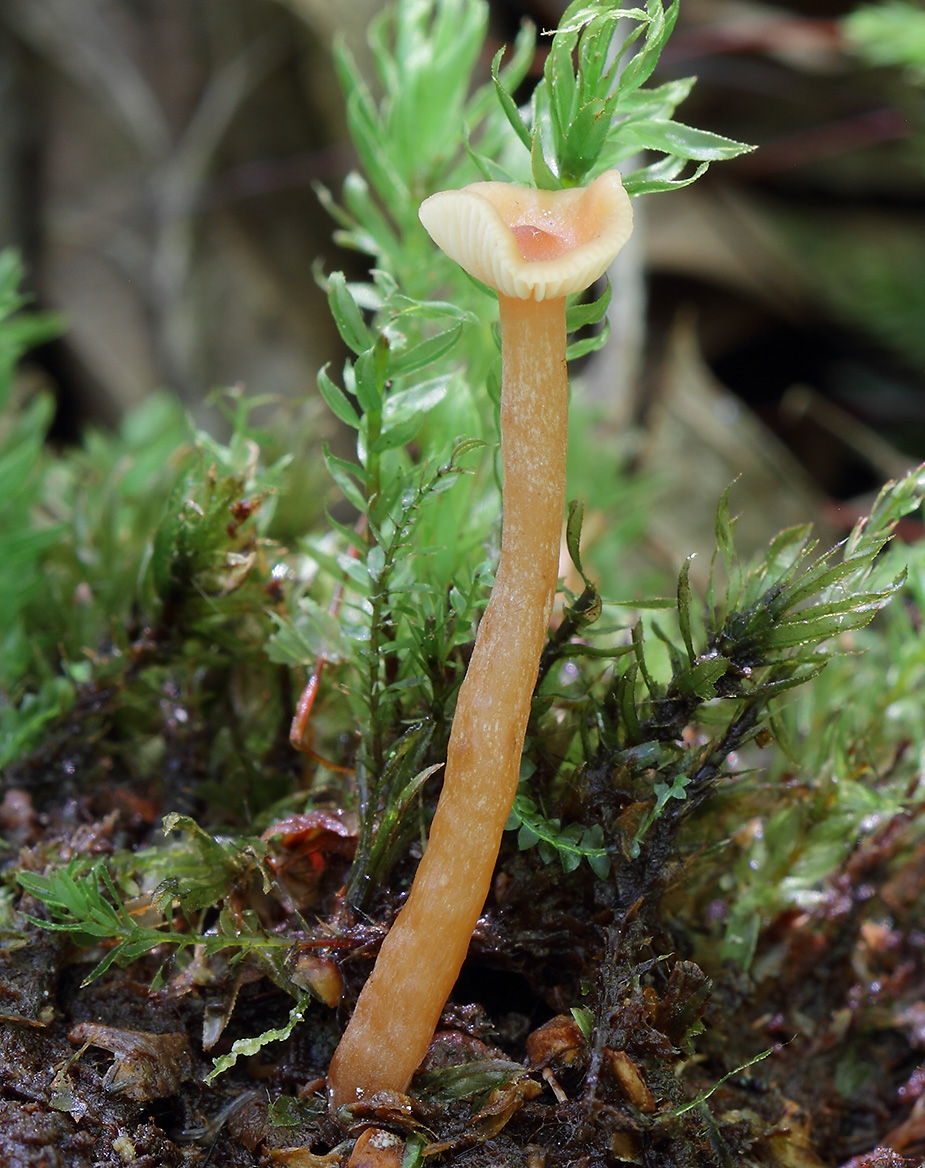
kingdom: Fungi
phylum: Basidiomycota
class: Agaricomycetes
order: Agaricales
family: Hydnangiaceae
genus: Laccaria
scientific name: Laccaria laccata
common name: rød ametysthat
